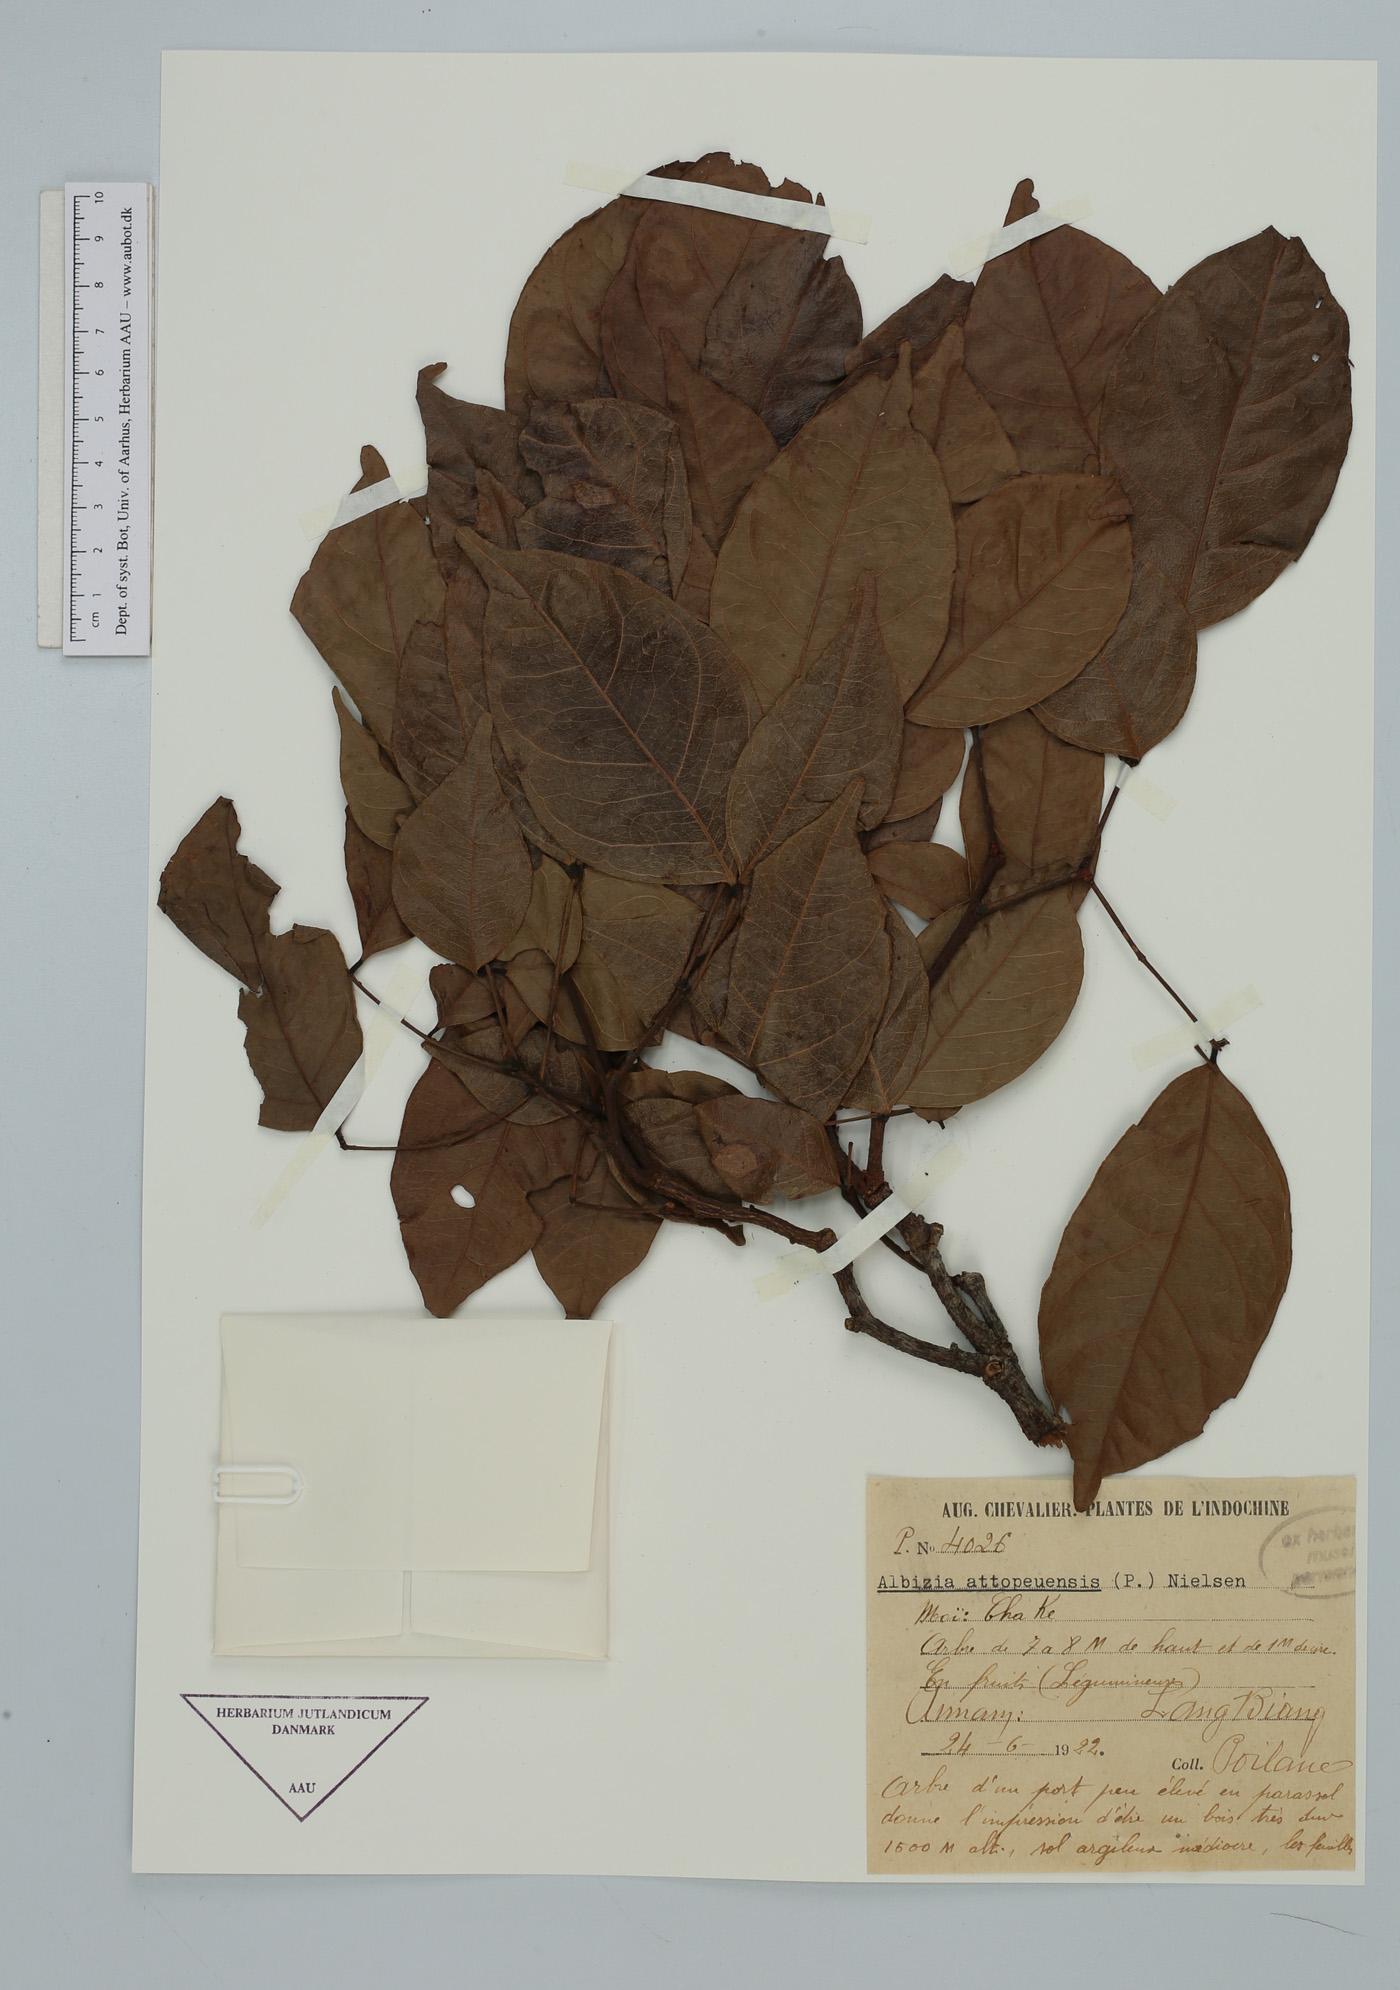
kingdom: Plantae
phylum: Tracheophyta
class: Magnoliopsida
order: Fabales
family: Fabaceae
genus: Albizia
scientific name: Albizia attopeuensis
